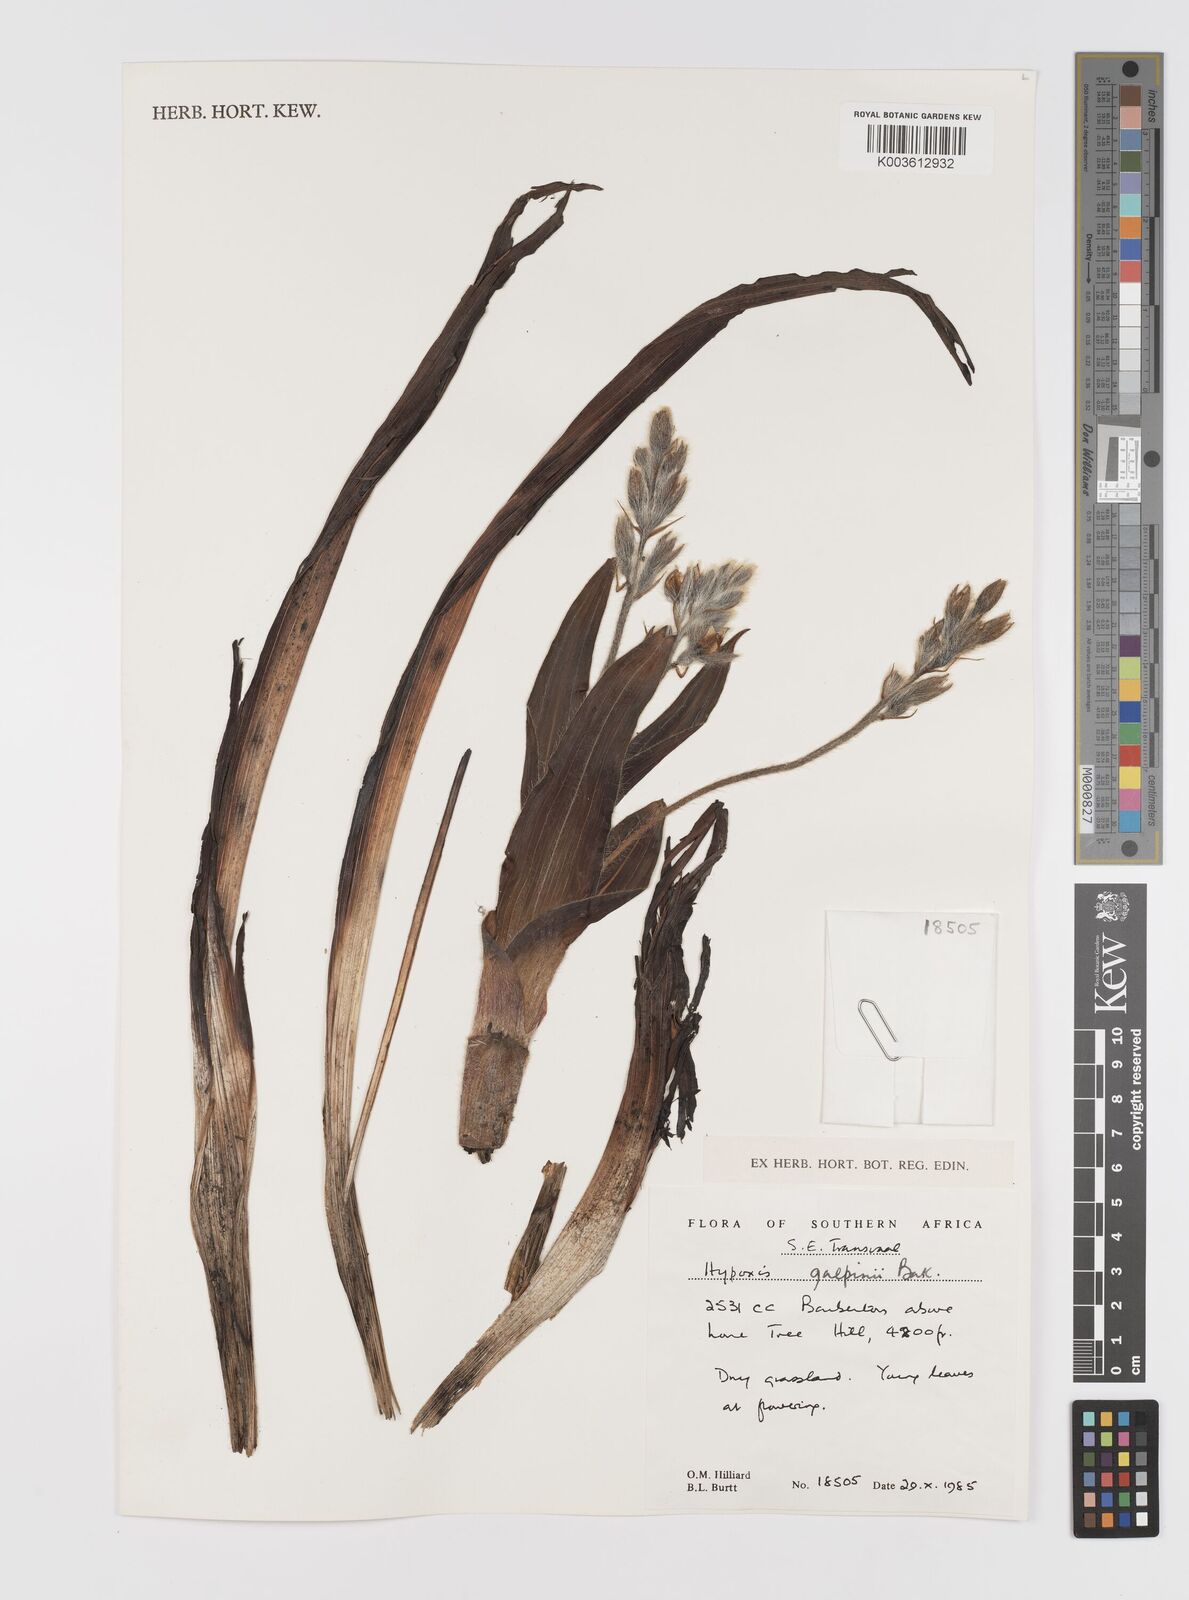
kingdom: Plantae
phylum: Tracheophyta
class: Liliopsida
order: Asparagales
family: Hypoxidaceae
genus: Hypoxis
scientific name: Hypoxis galpinii
